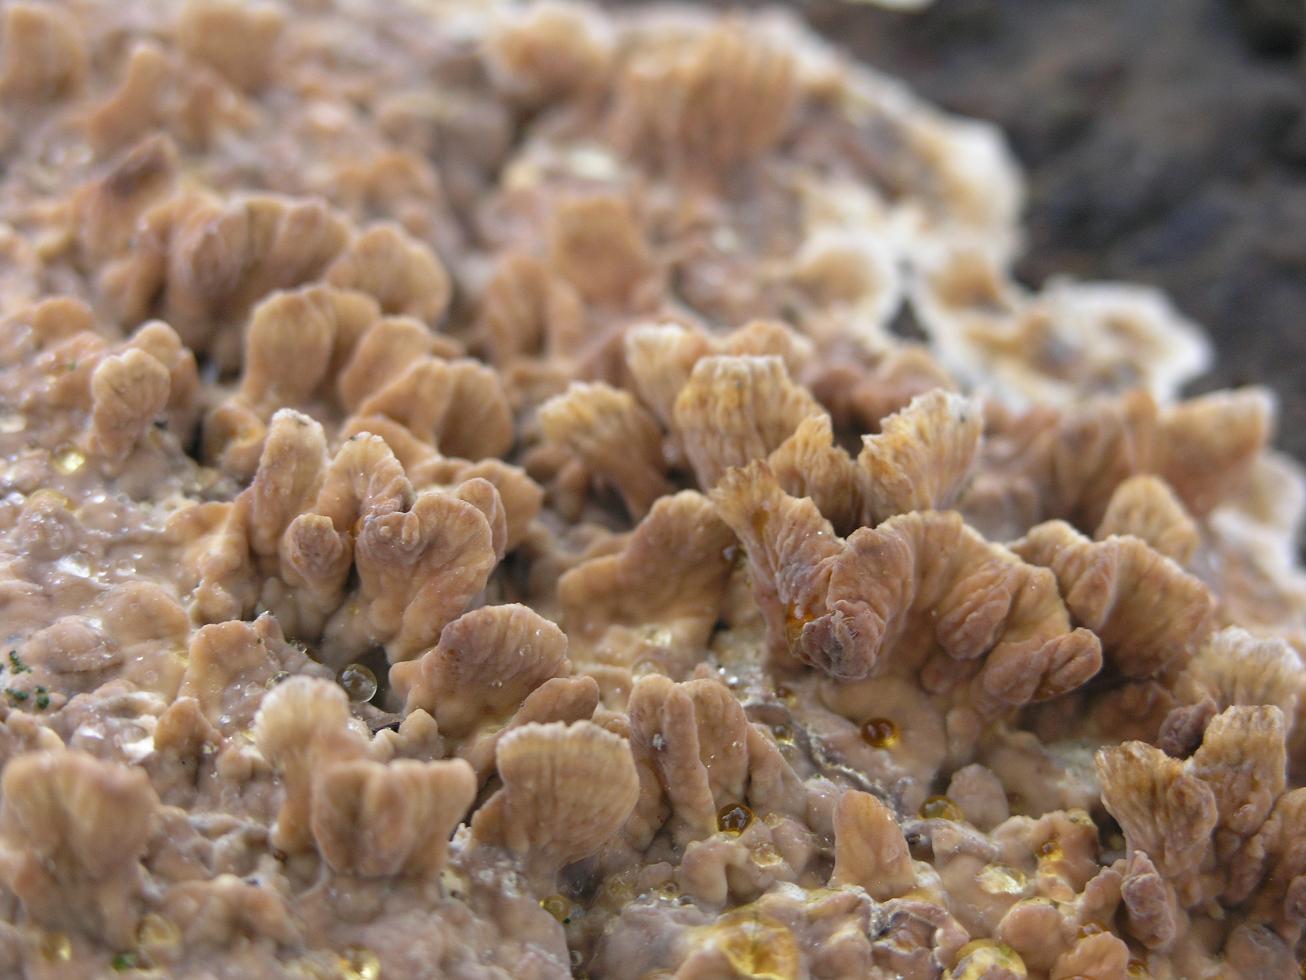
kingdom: Fungi
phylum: Basidiomycota
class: Agaricomycetes
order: Russulales
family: Stereaceae
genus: Stereum
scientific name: Stereum gausapatum
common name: tynd lædersvamp
